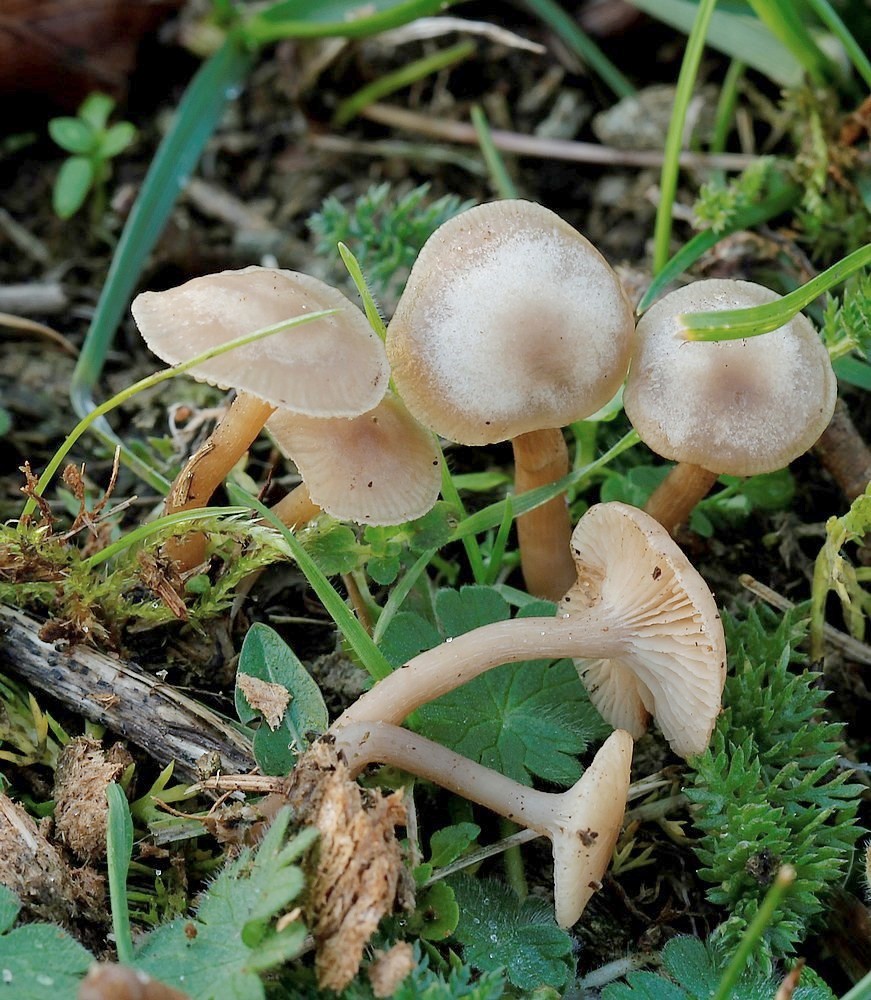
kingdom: Fungi
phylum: Basidiomycota
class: Agaricomycetes
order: Agaricales
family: Tricholomataceae
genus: Clitocybe
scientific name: Clitocybe amarescens
